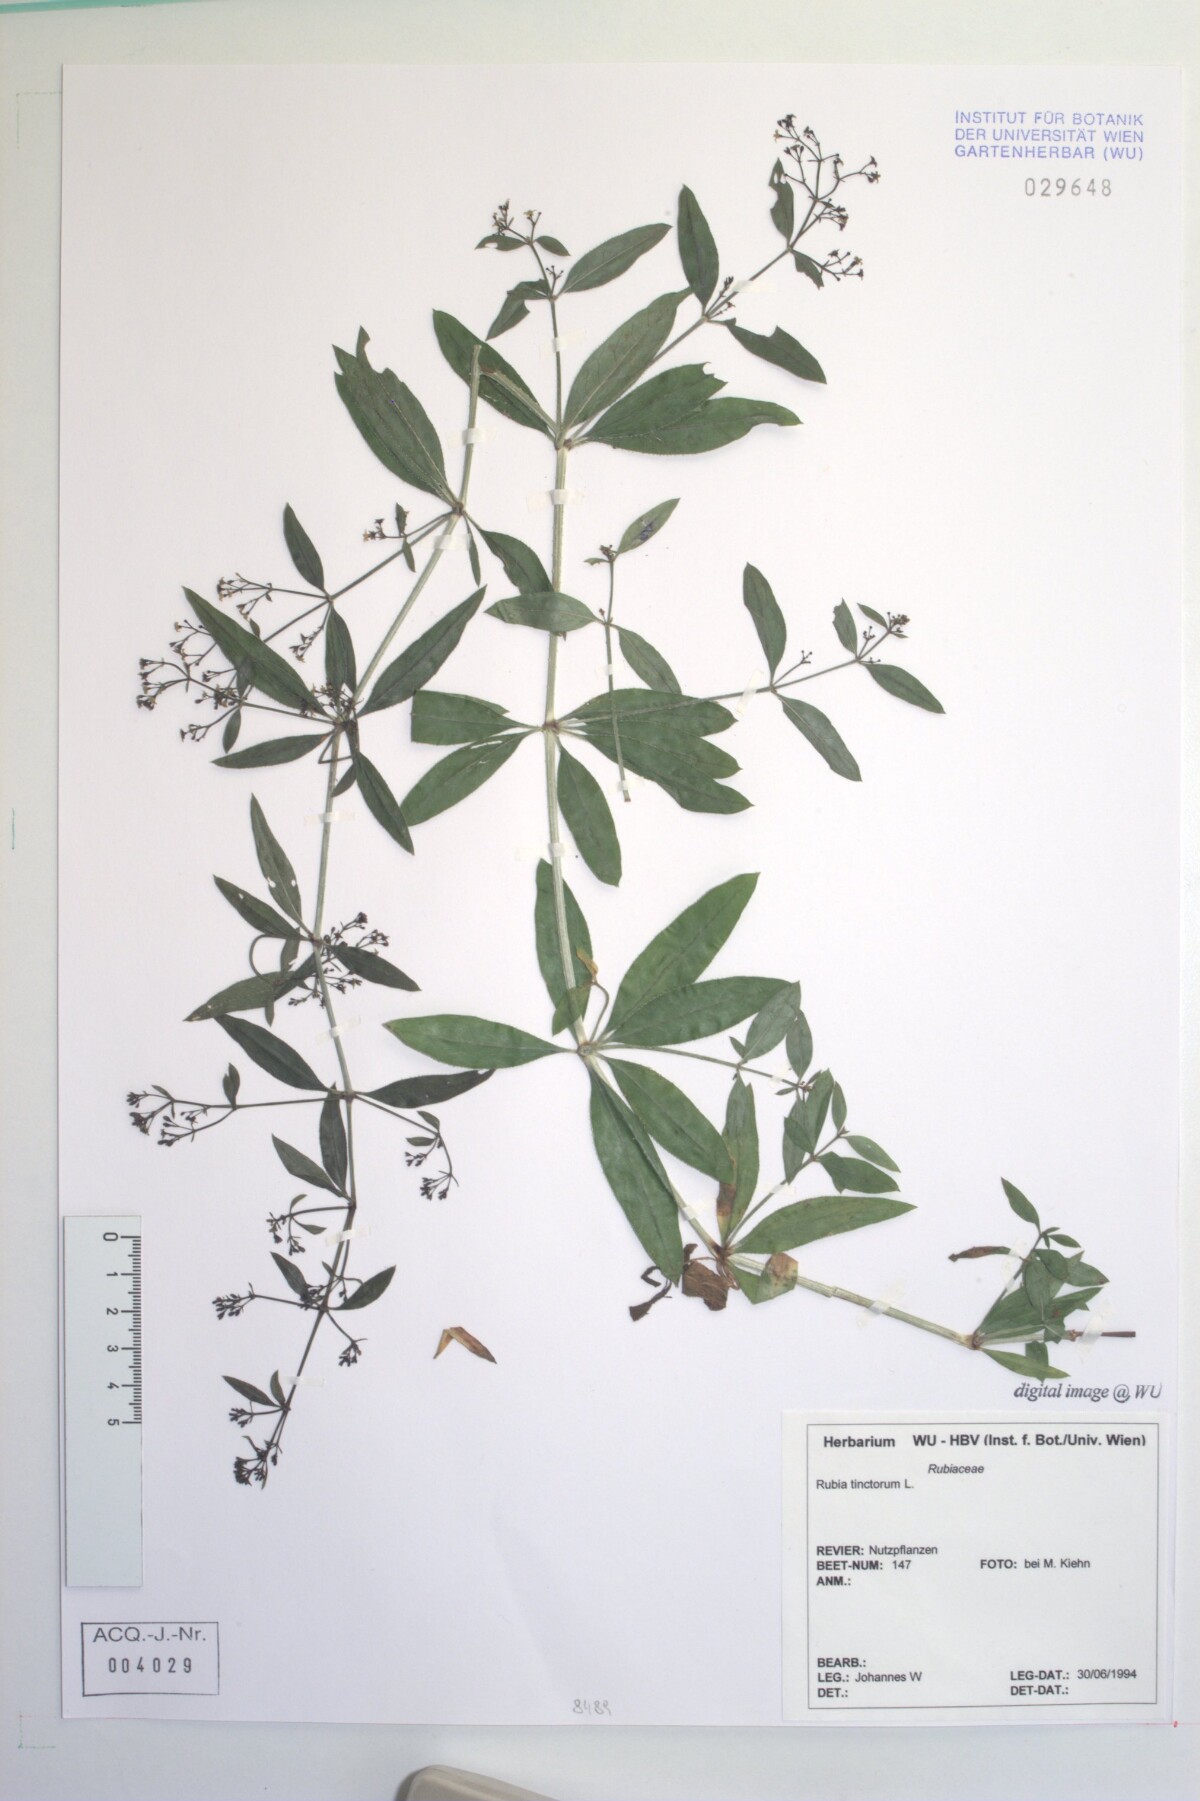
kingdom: Plantae
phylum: Tracheophyta
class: Magnoliopsida
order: Gentianales
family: Rubiaceae
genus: Rubia
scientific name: Rubia tinctorum
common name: Dyer's madder
